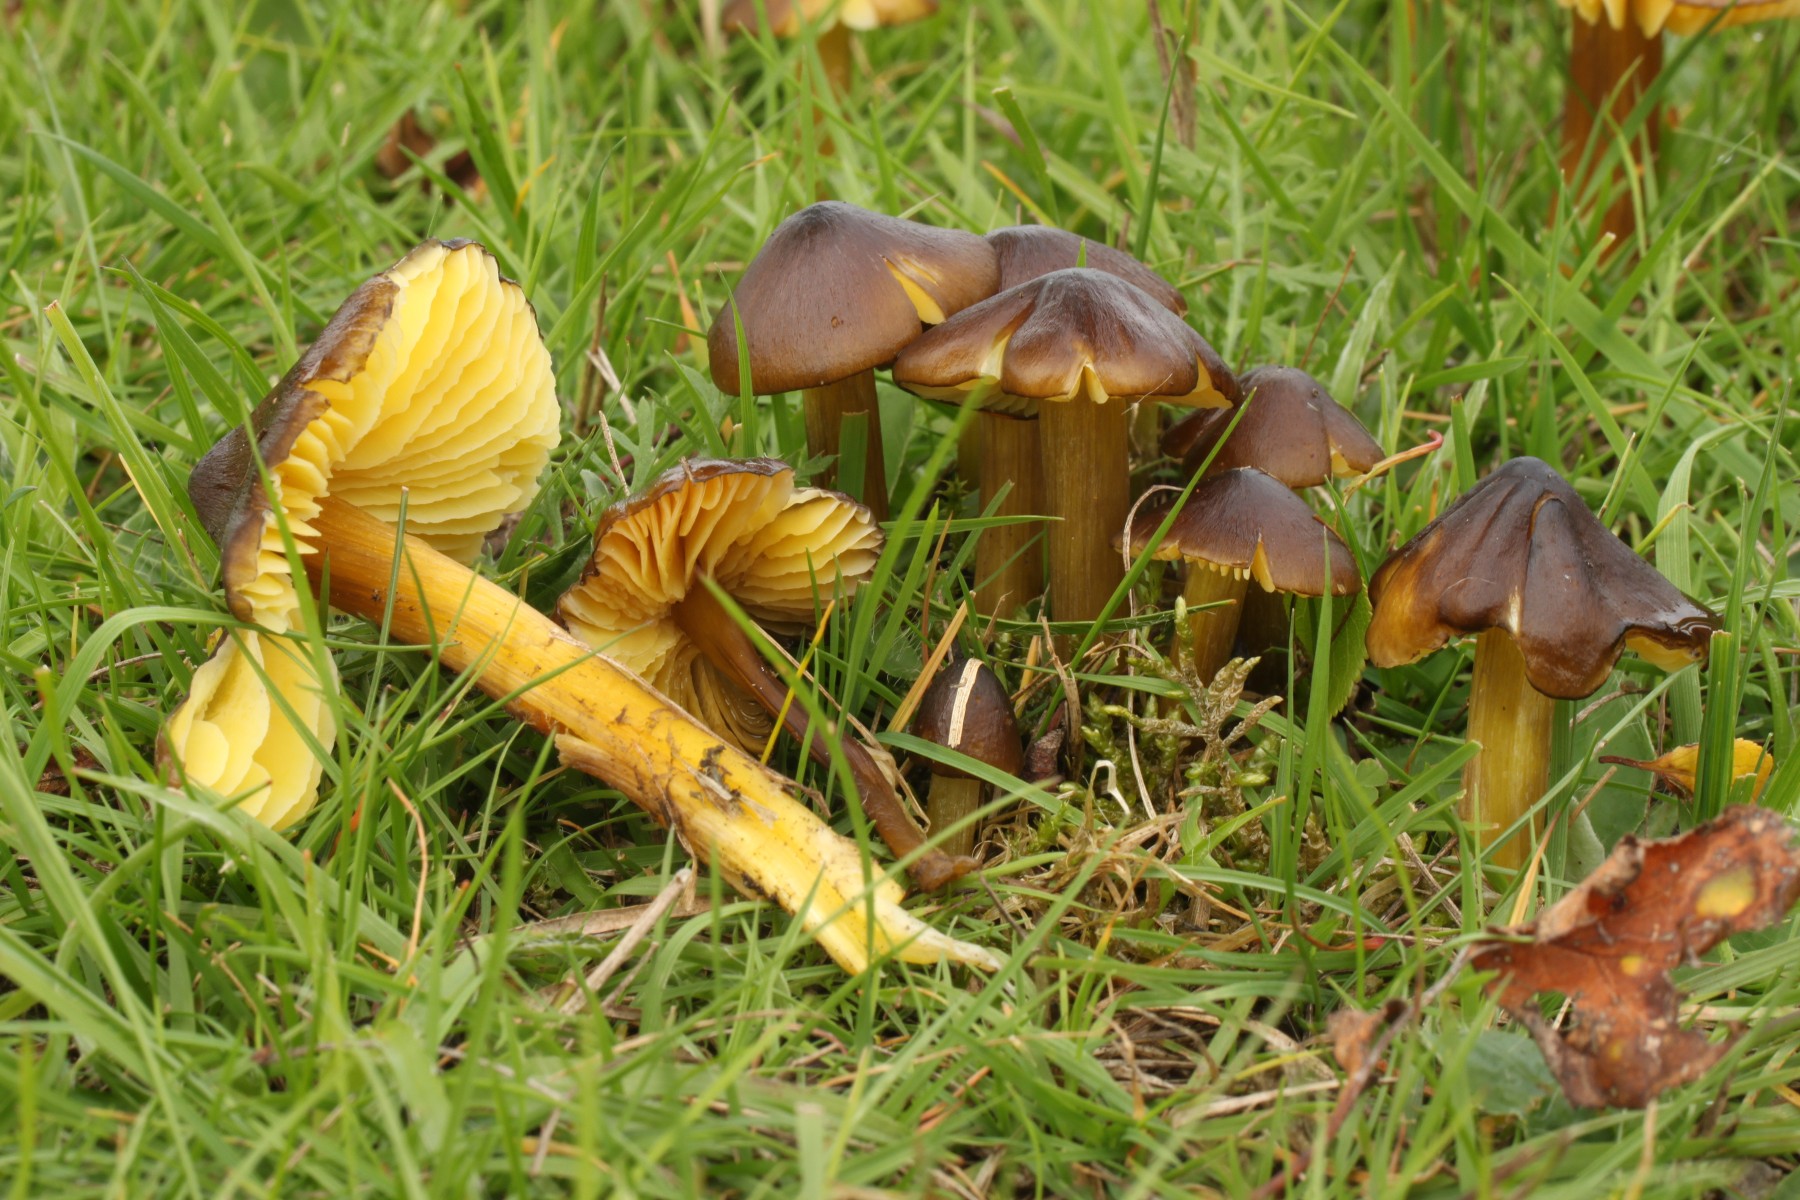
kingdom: Fungi
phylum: Basidiomycota
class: Agaricomycetes
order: Agaricales
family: Hygrophoraceae
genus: Hygrocybe
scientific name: Hygrocybe spadicea
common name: daddelbrun vokshat
